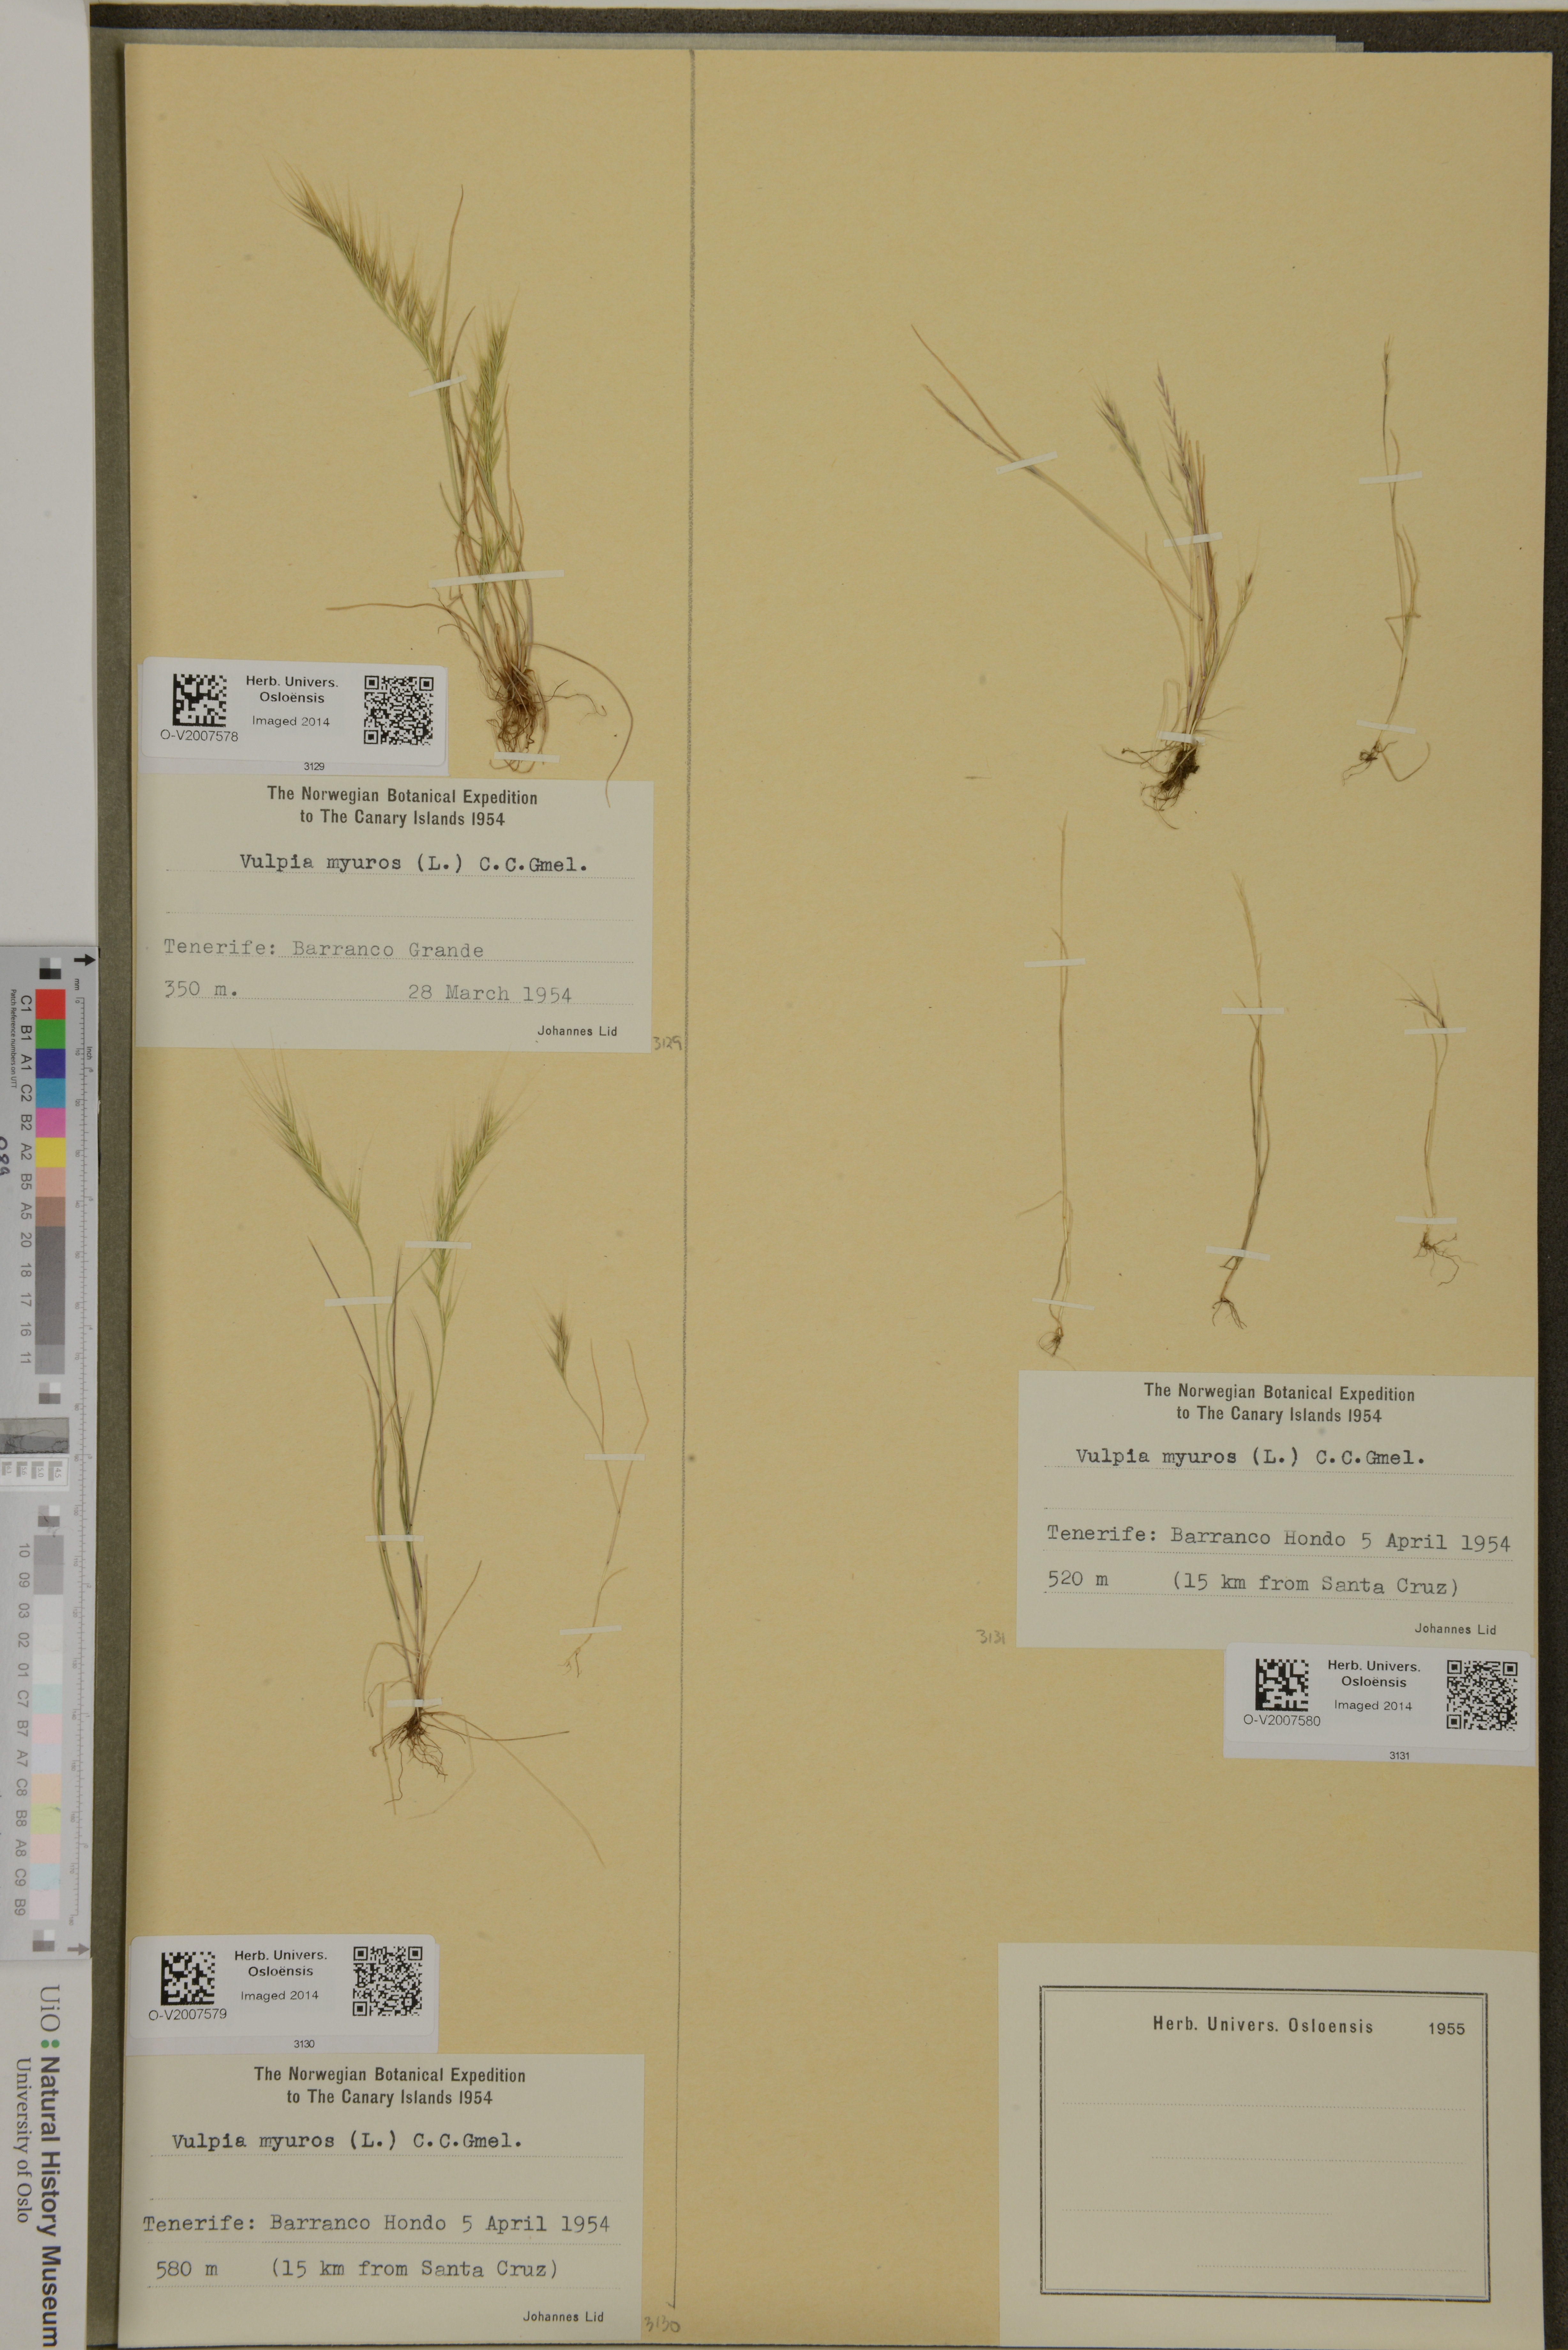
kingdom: Plantae
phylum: Tracheophyta
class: Liliopsida
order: Poales
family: Poaceae
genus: Festuca
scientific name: Festuca myuros
